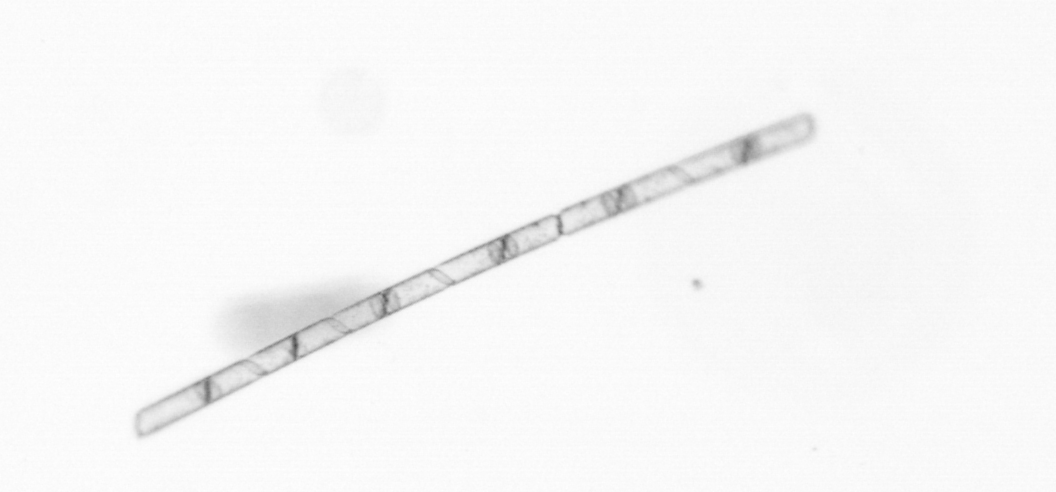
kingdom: Chromista
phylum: Ochrophyta
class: Bacillariophyceae
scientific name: Bacillariophyceae
